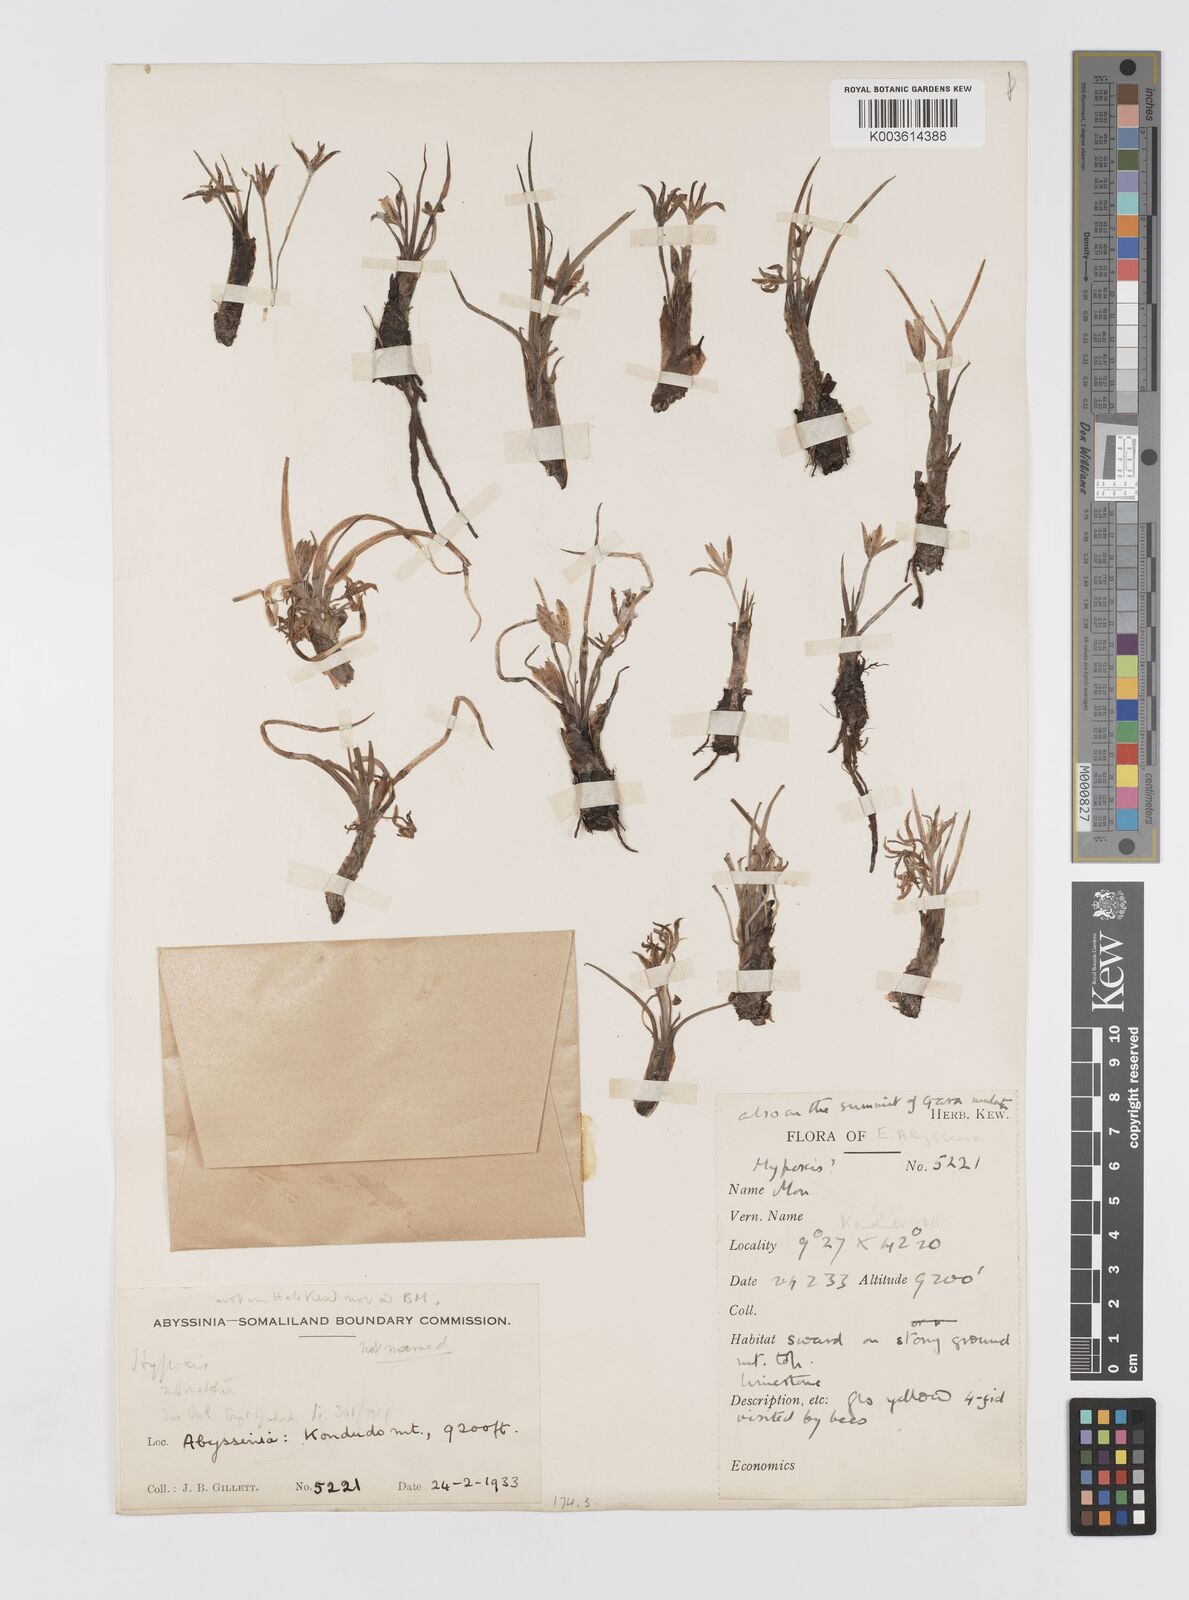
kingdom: Plantae
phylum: Tracheophyta
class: Liliopsida
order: Asparagales
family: Hypoxidaceae
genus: Curculigo
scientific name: Curculigo pilosa
